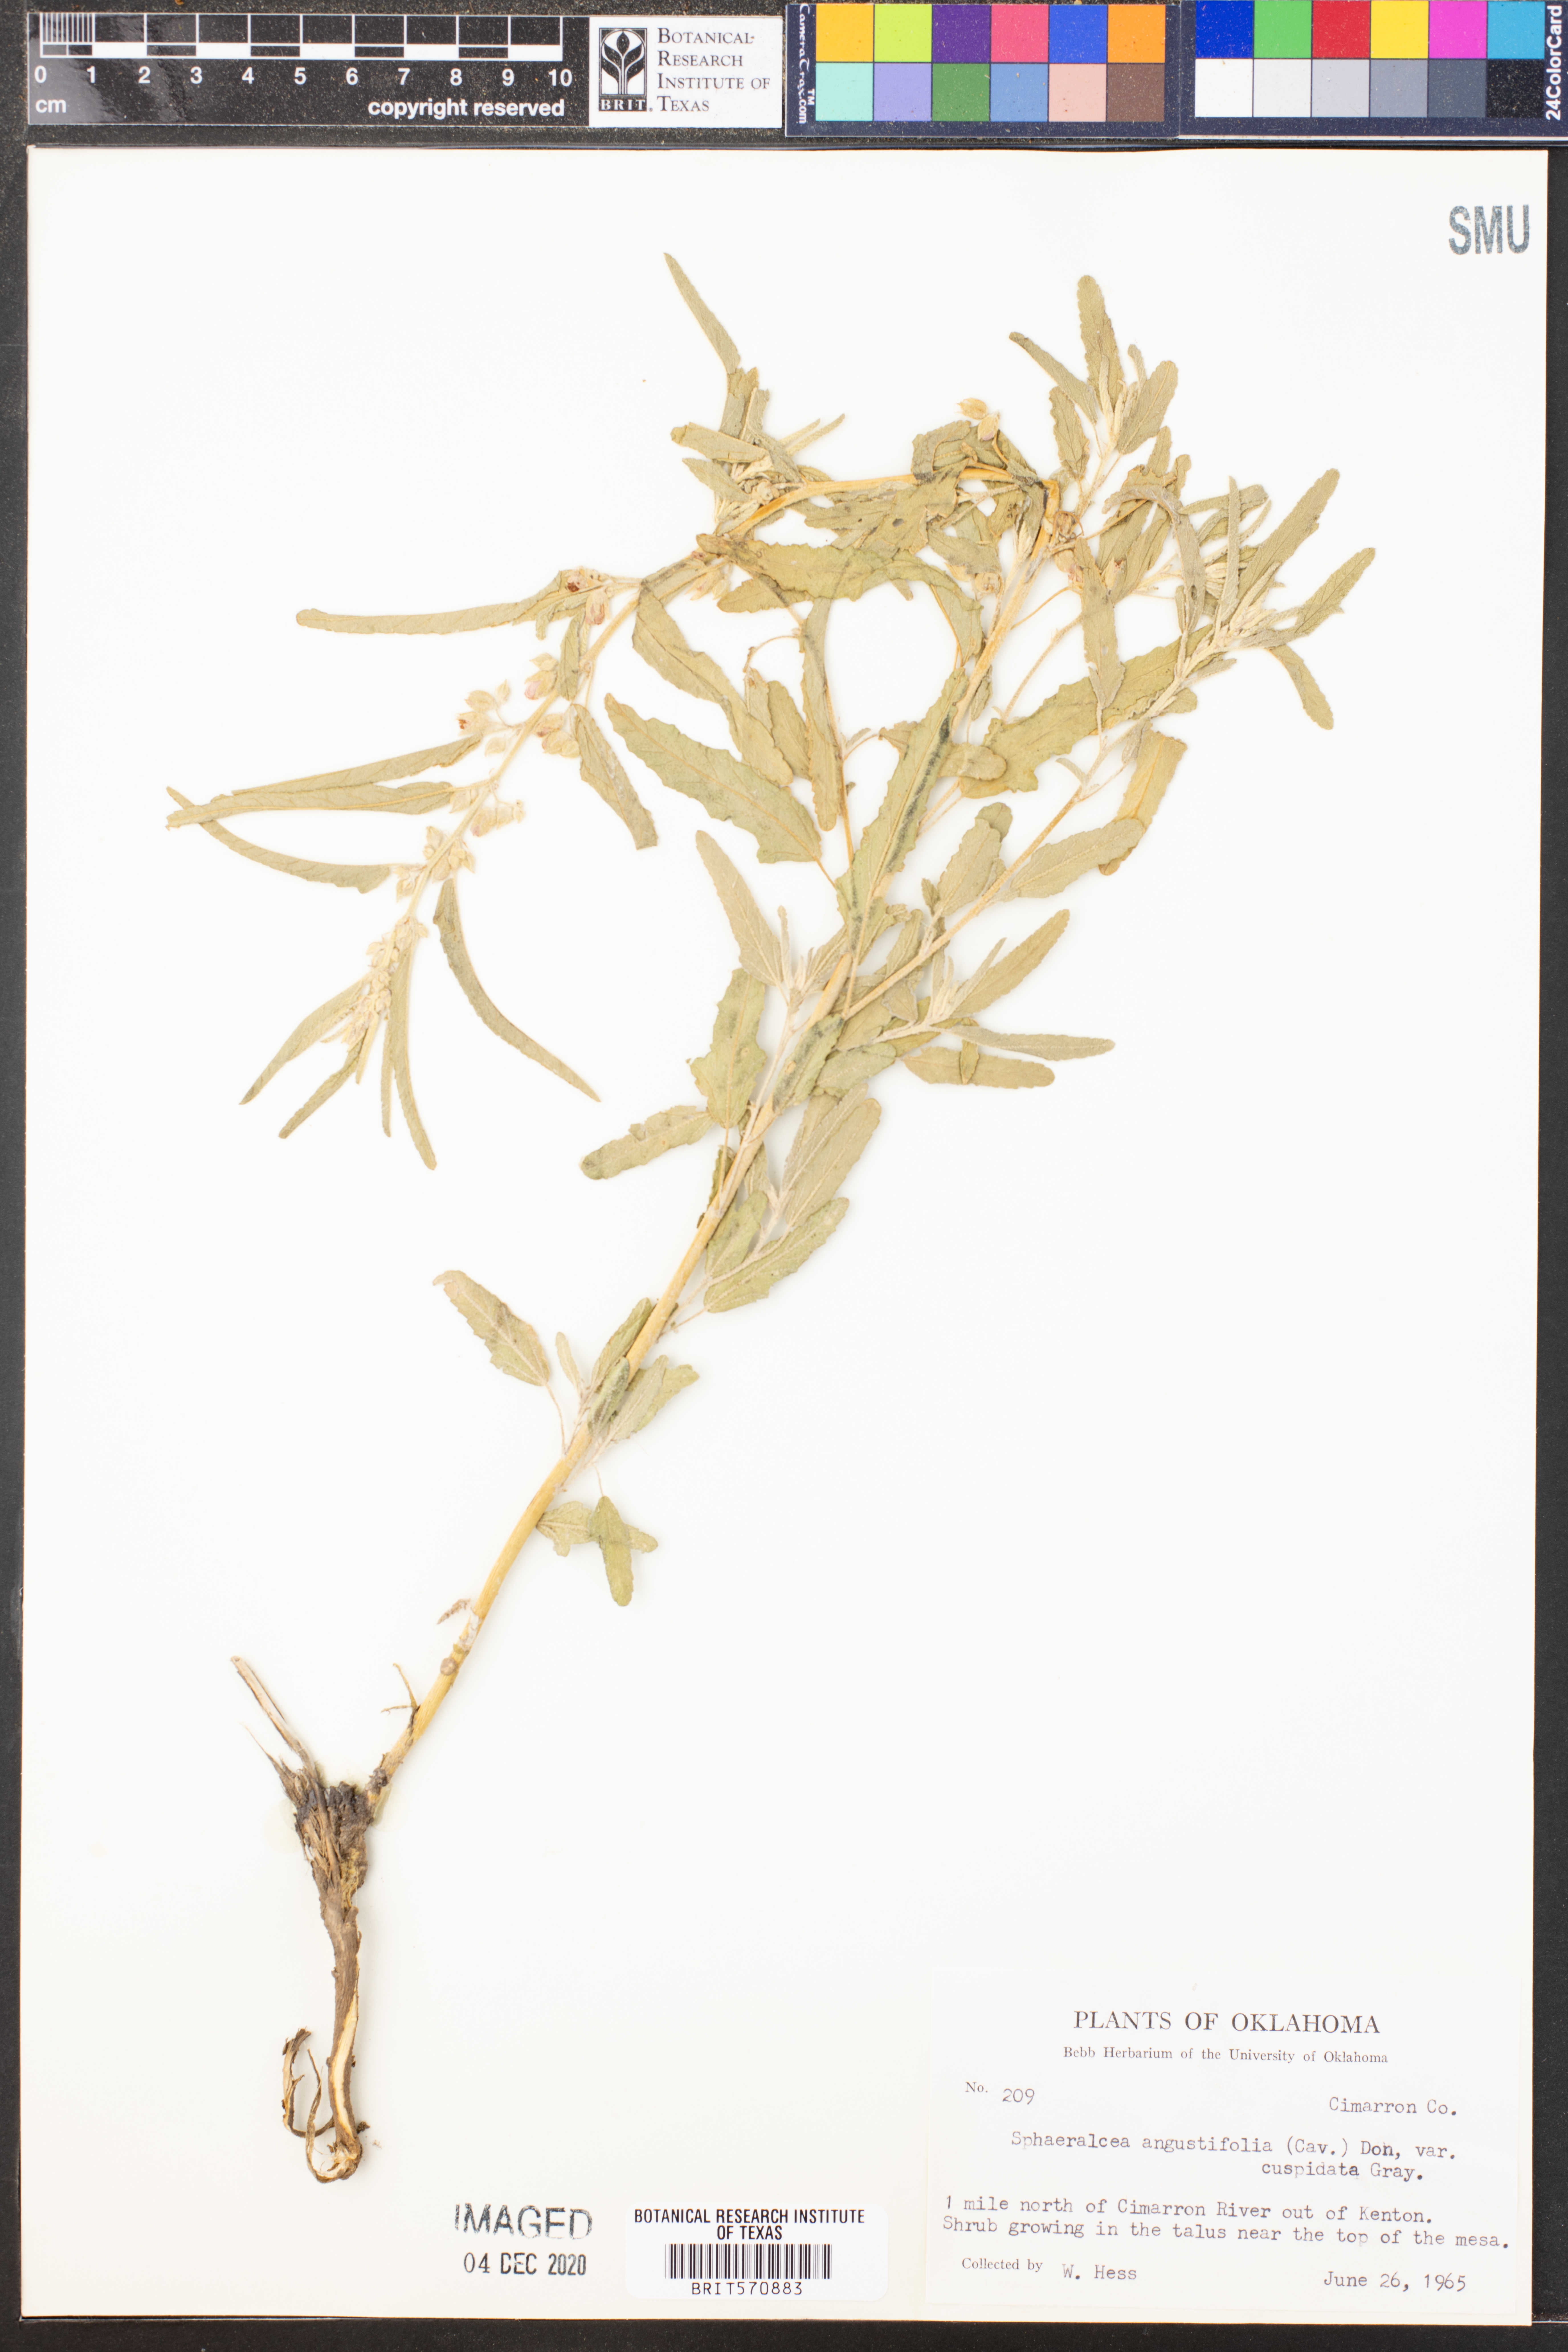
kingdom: Plantae
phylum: Tracheophyta
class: Magnoliopsida
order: Malvales
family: Malvaceae
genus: Sphaeralcea
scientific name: Sphaeralcea angustifolia
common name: Copper globe-mallow
